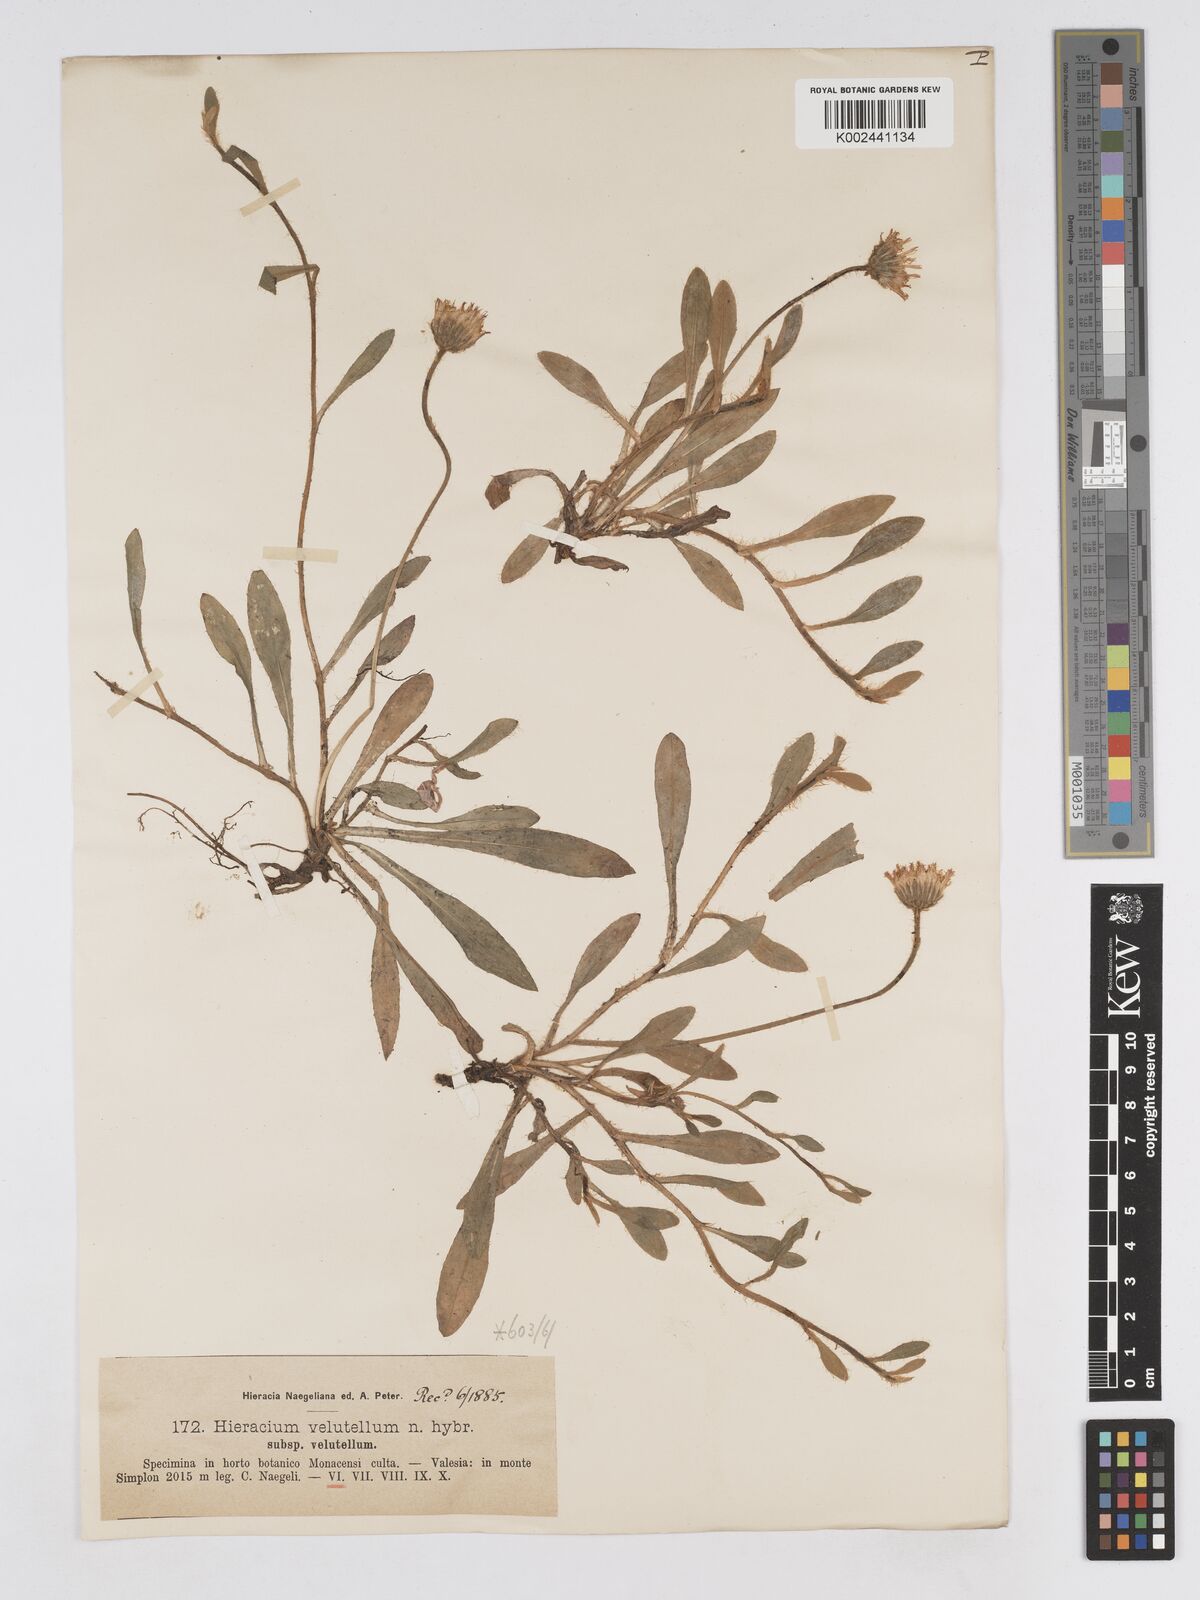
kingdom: Plantae
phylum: Tracheophyta
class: Magnoliopsida
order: Asterales
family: Asteraceae
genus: Pilosella
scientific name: Pilosella hypoleuca
